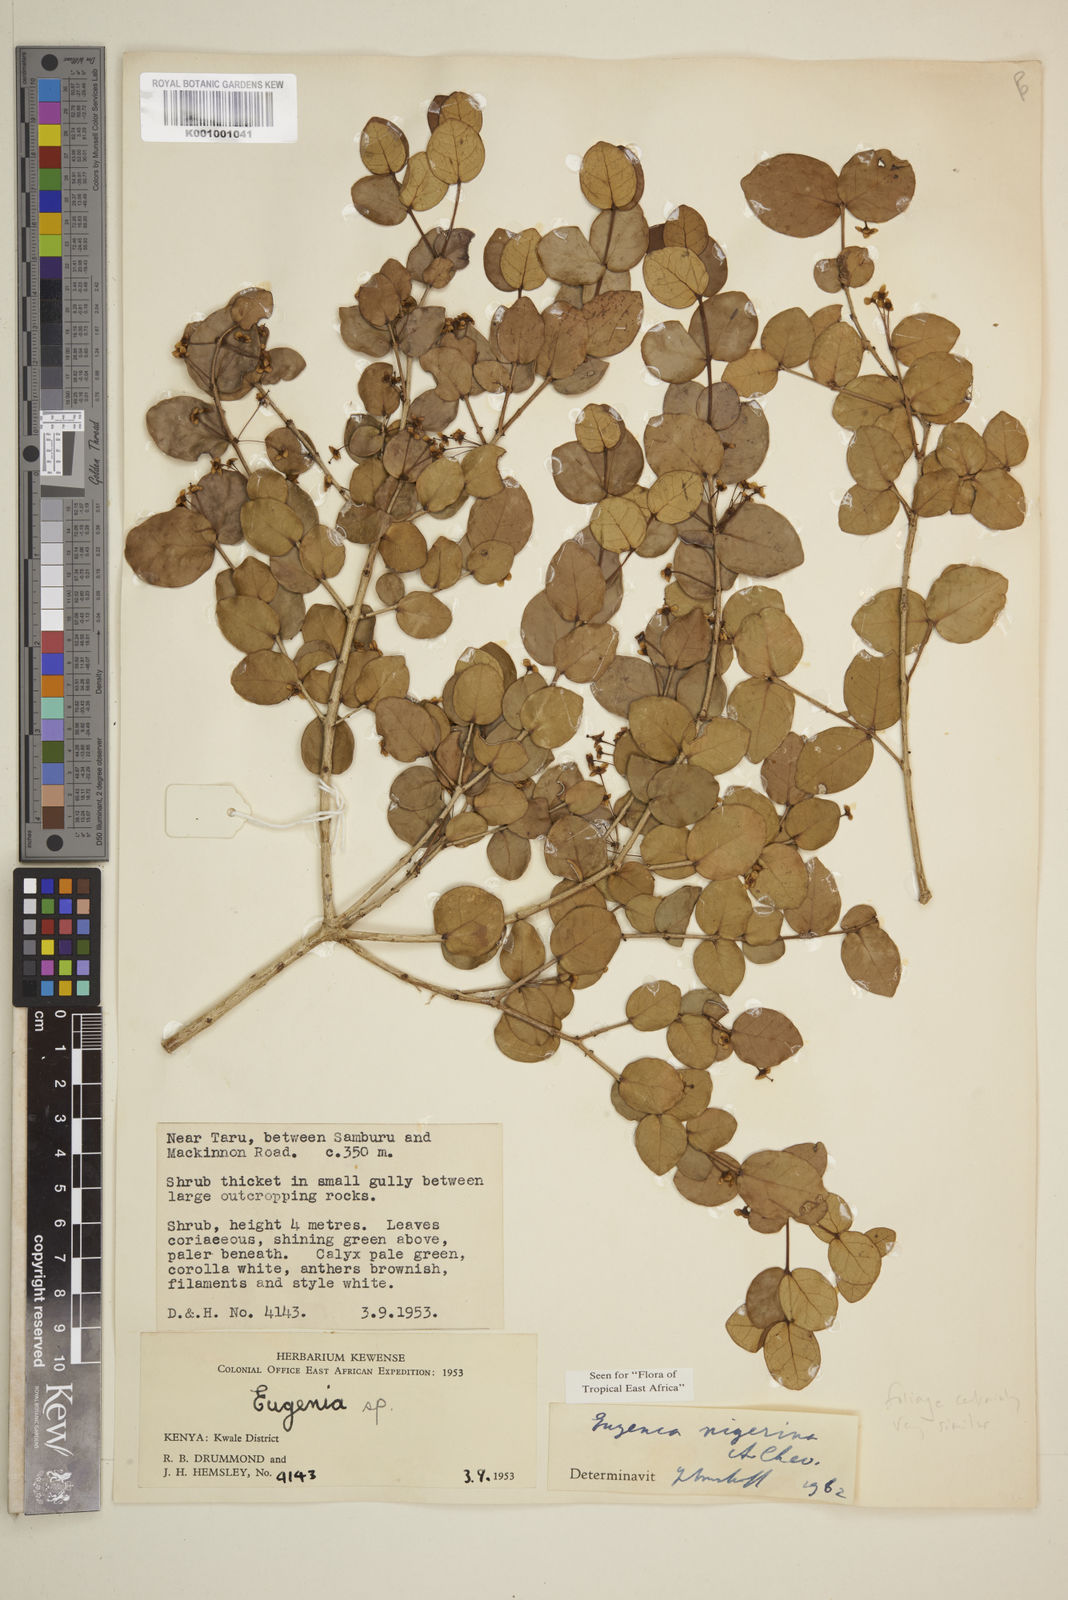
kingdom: Plantae
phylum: Tracheophyta
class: Magnoliopsida
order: Myrtales
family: Myrtaceae
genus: Eugenia
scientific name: Eugenia nigerina
